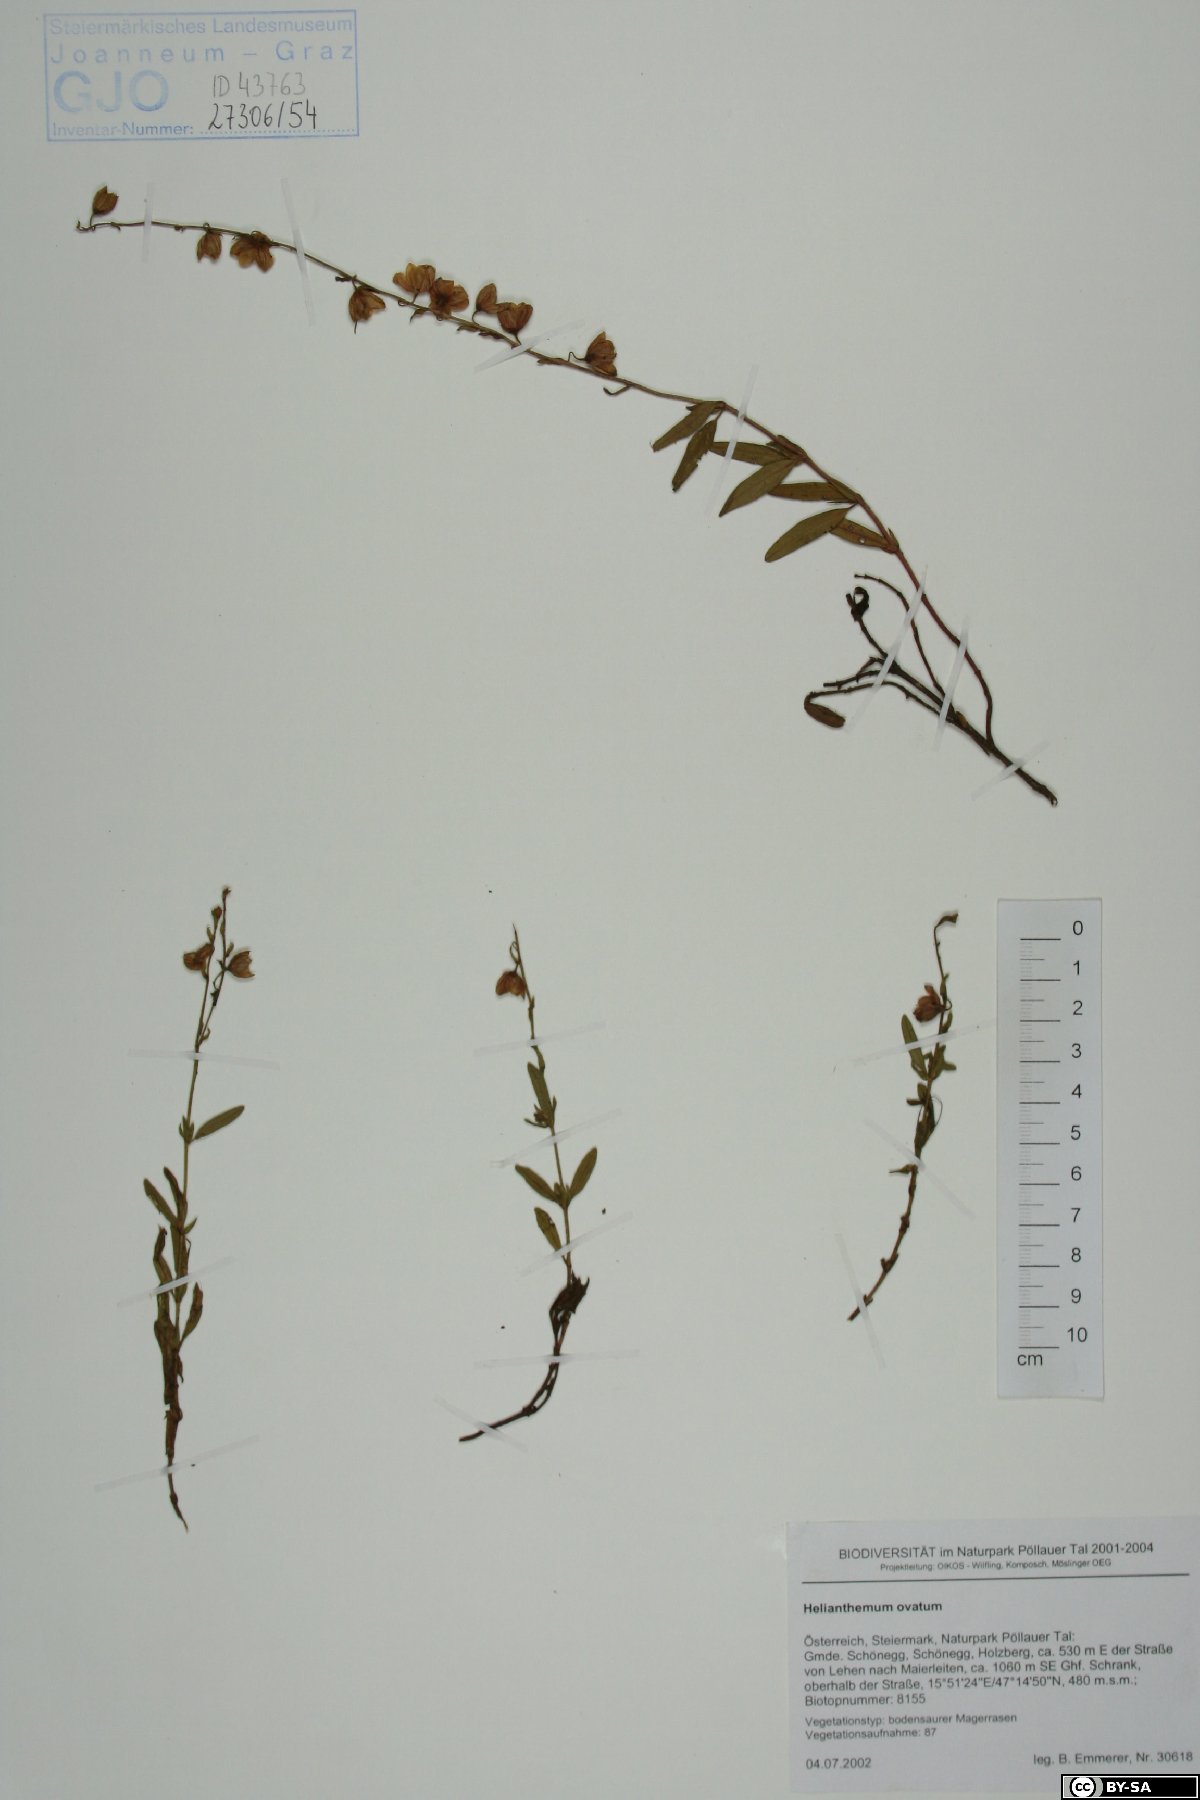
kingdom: Plantae
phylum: Tracheophyta
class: Magnoliopsida
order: Malvales
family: Cistaceae
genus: Helianthemum
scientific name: Helianthemum nummularium
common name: Common rock-rose
